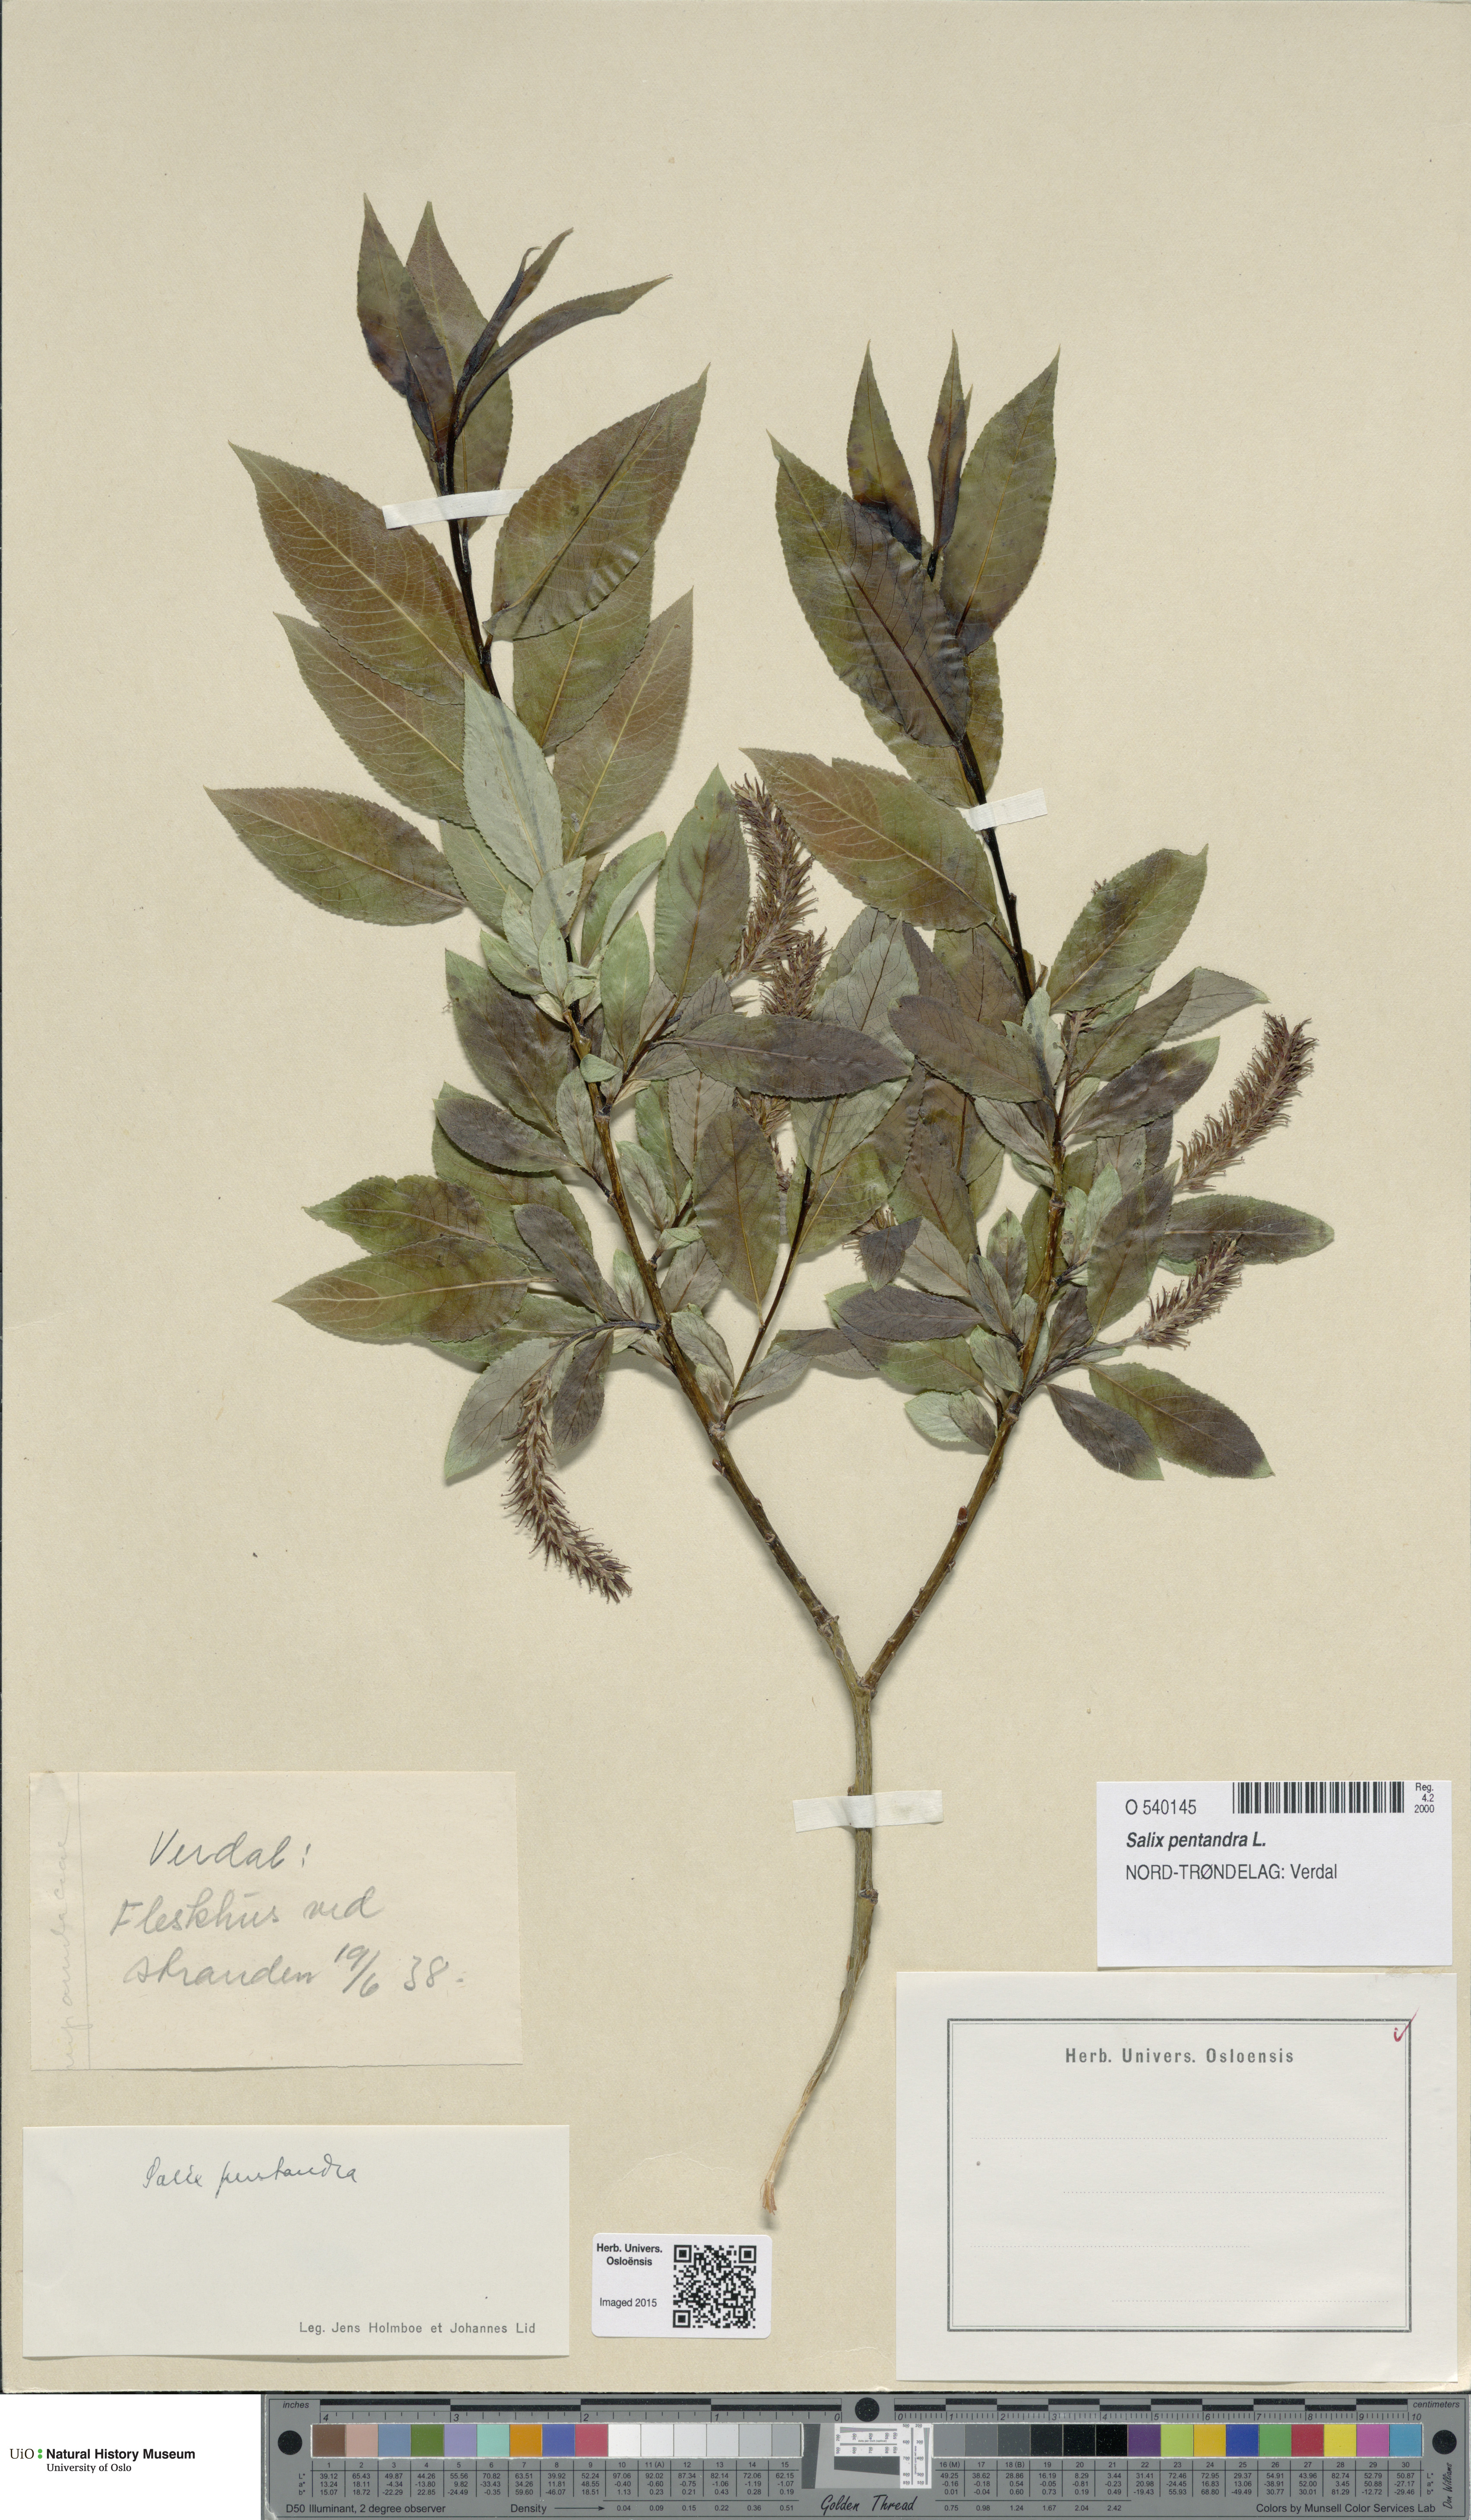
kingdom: Plantae
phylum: Tracheophyta
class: Magnoliopsida
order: Malpighiales
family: Salicaceae
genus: Salix
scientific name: Salix pentandra
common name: Bay willow
